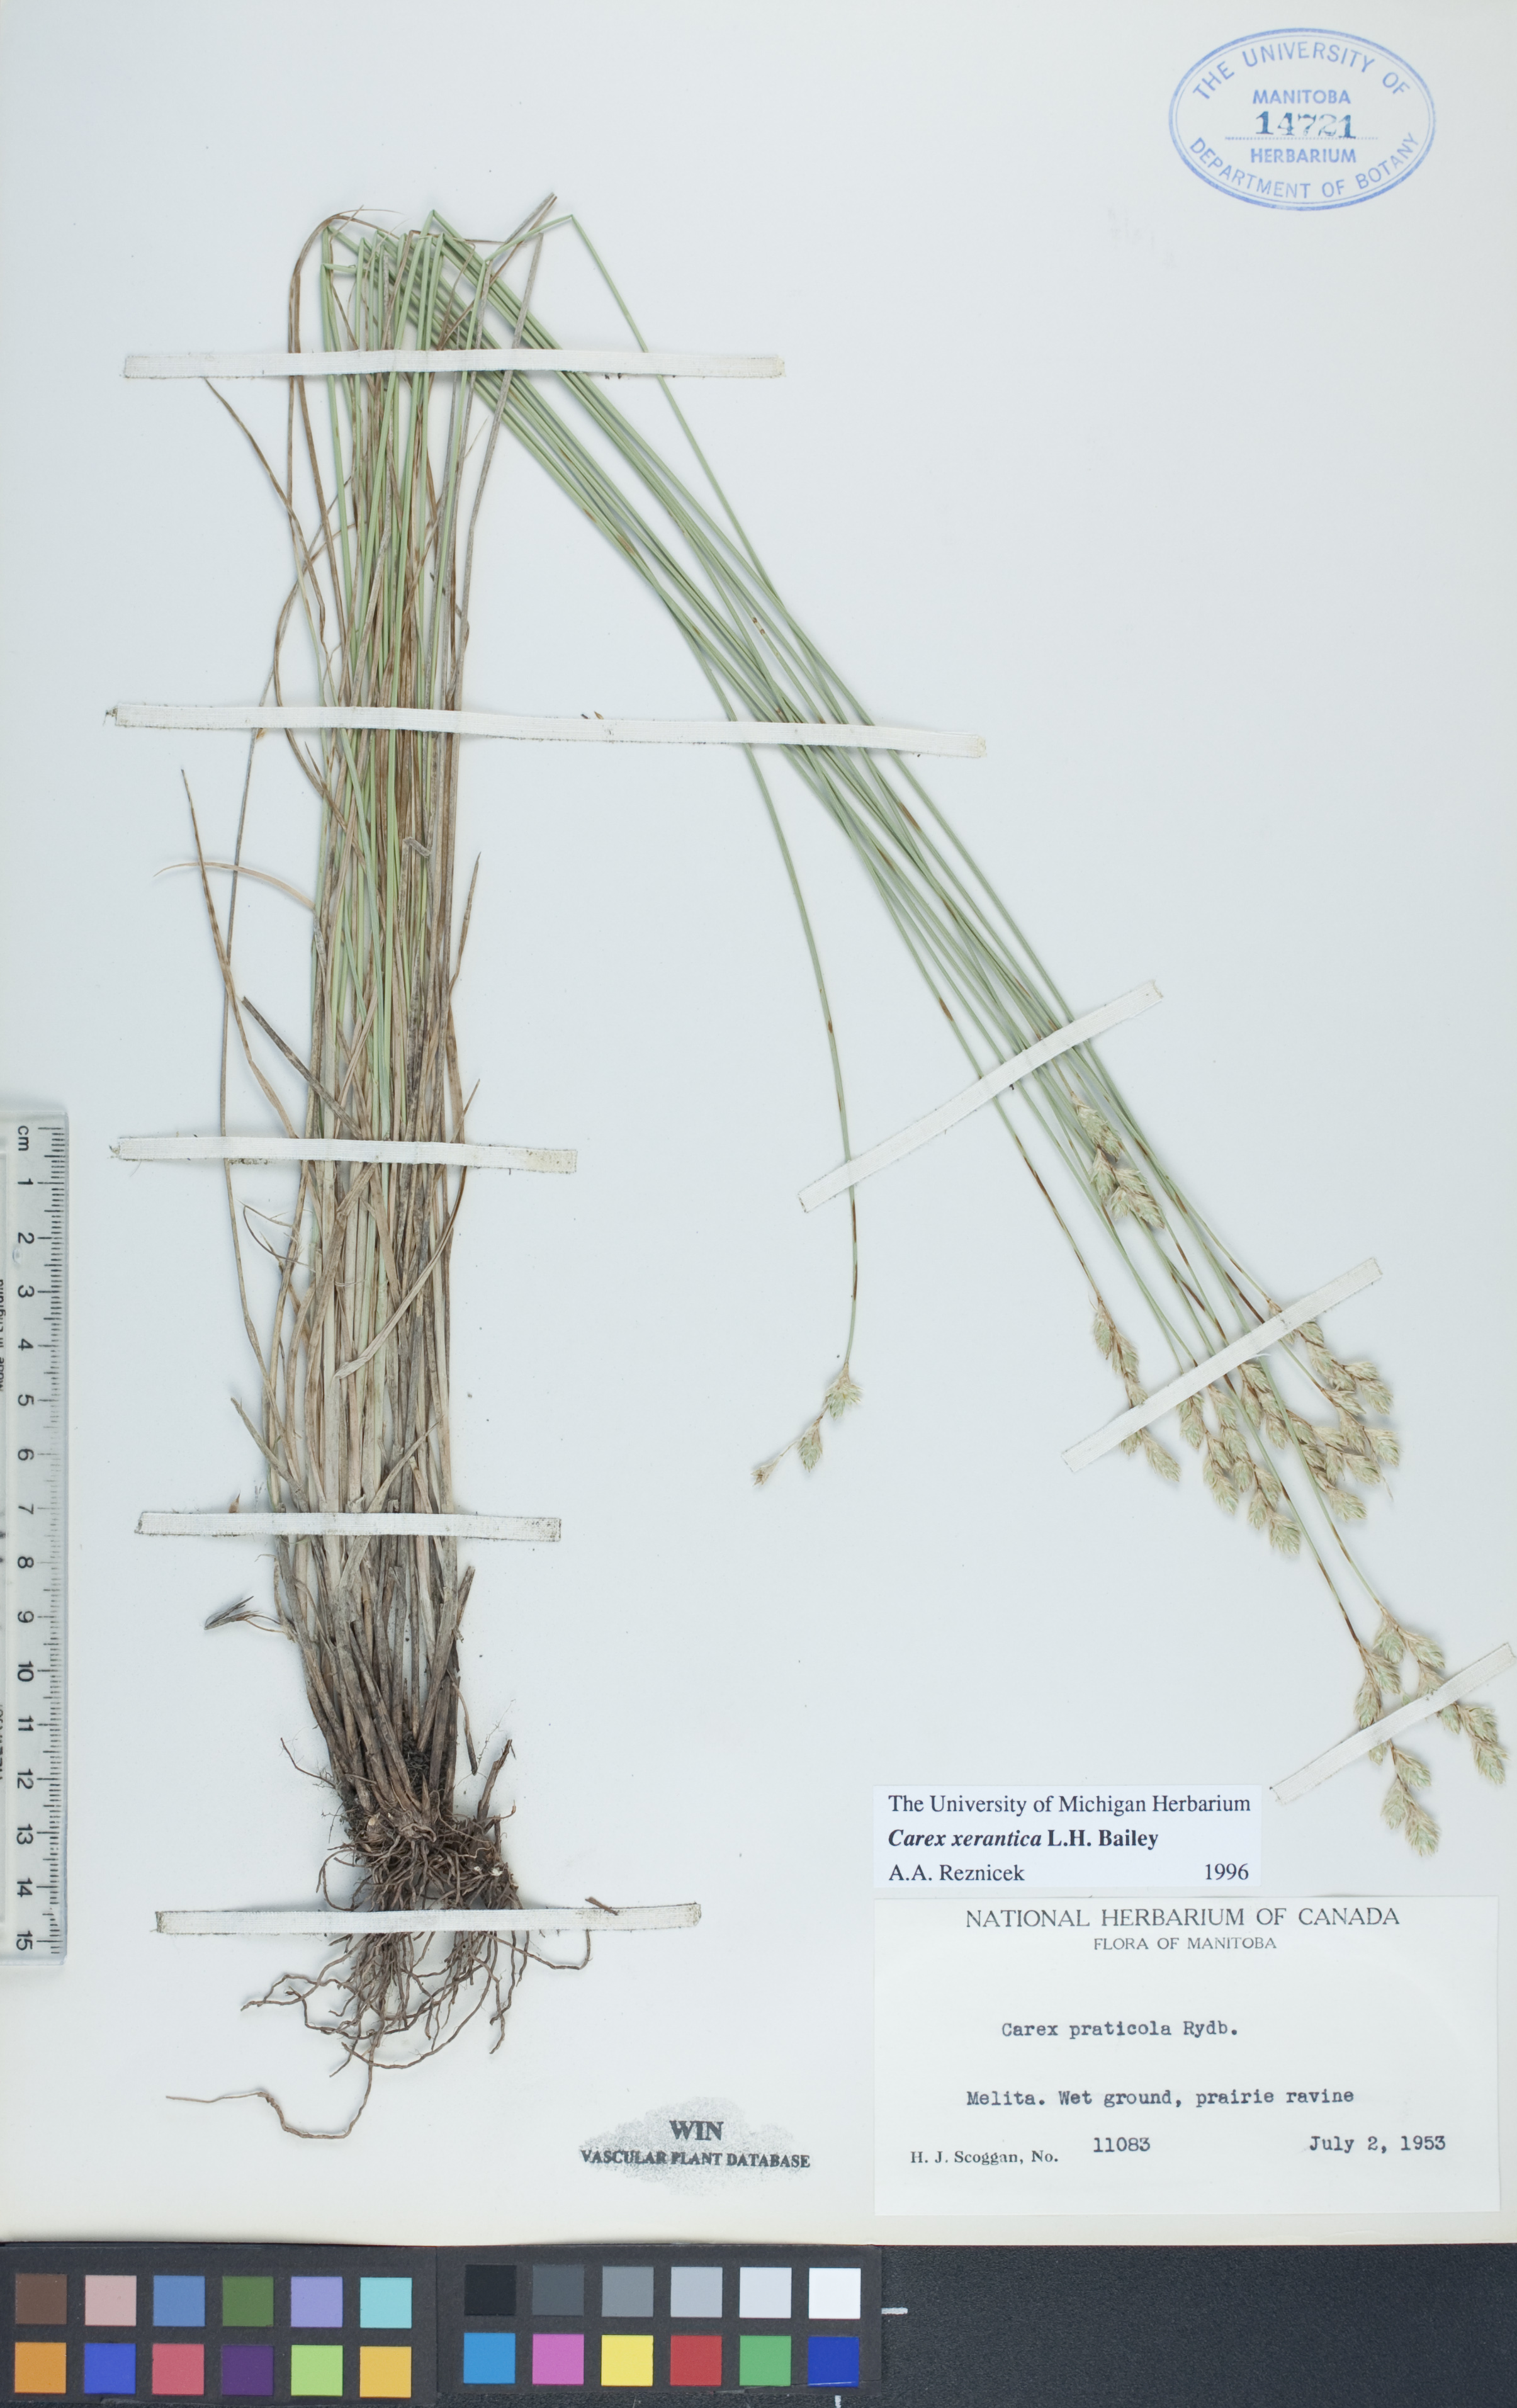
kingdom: Plantae
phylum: Tracheophyta
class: Liliopsida
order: Poales
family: Cyperaceae
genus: Carex
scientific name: Carex xerantica
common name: Dryland sedge
